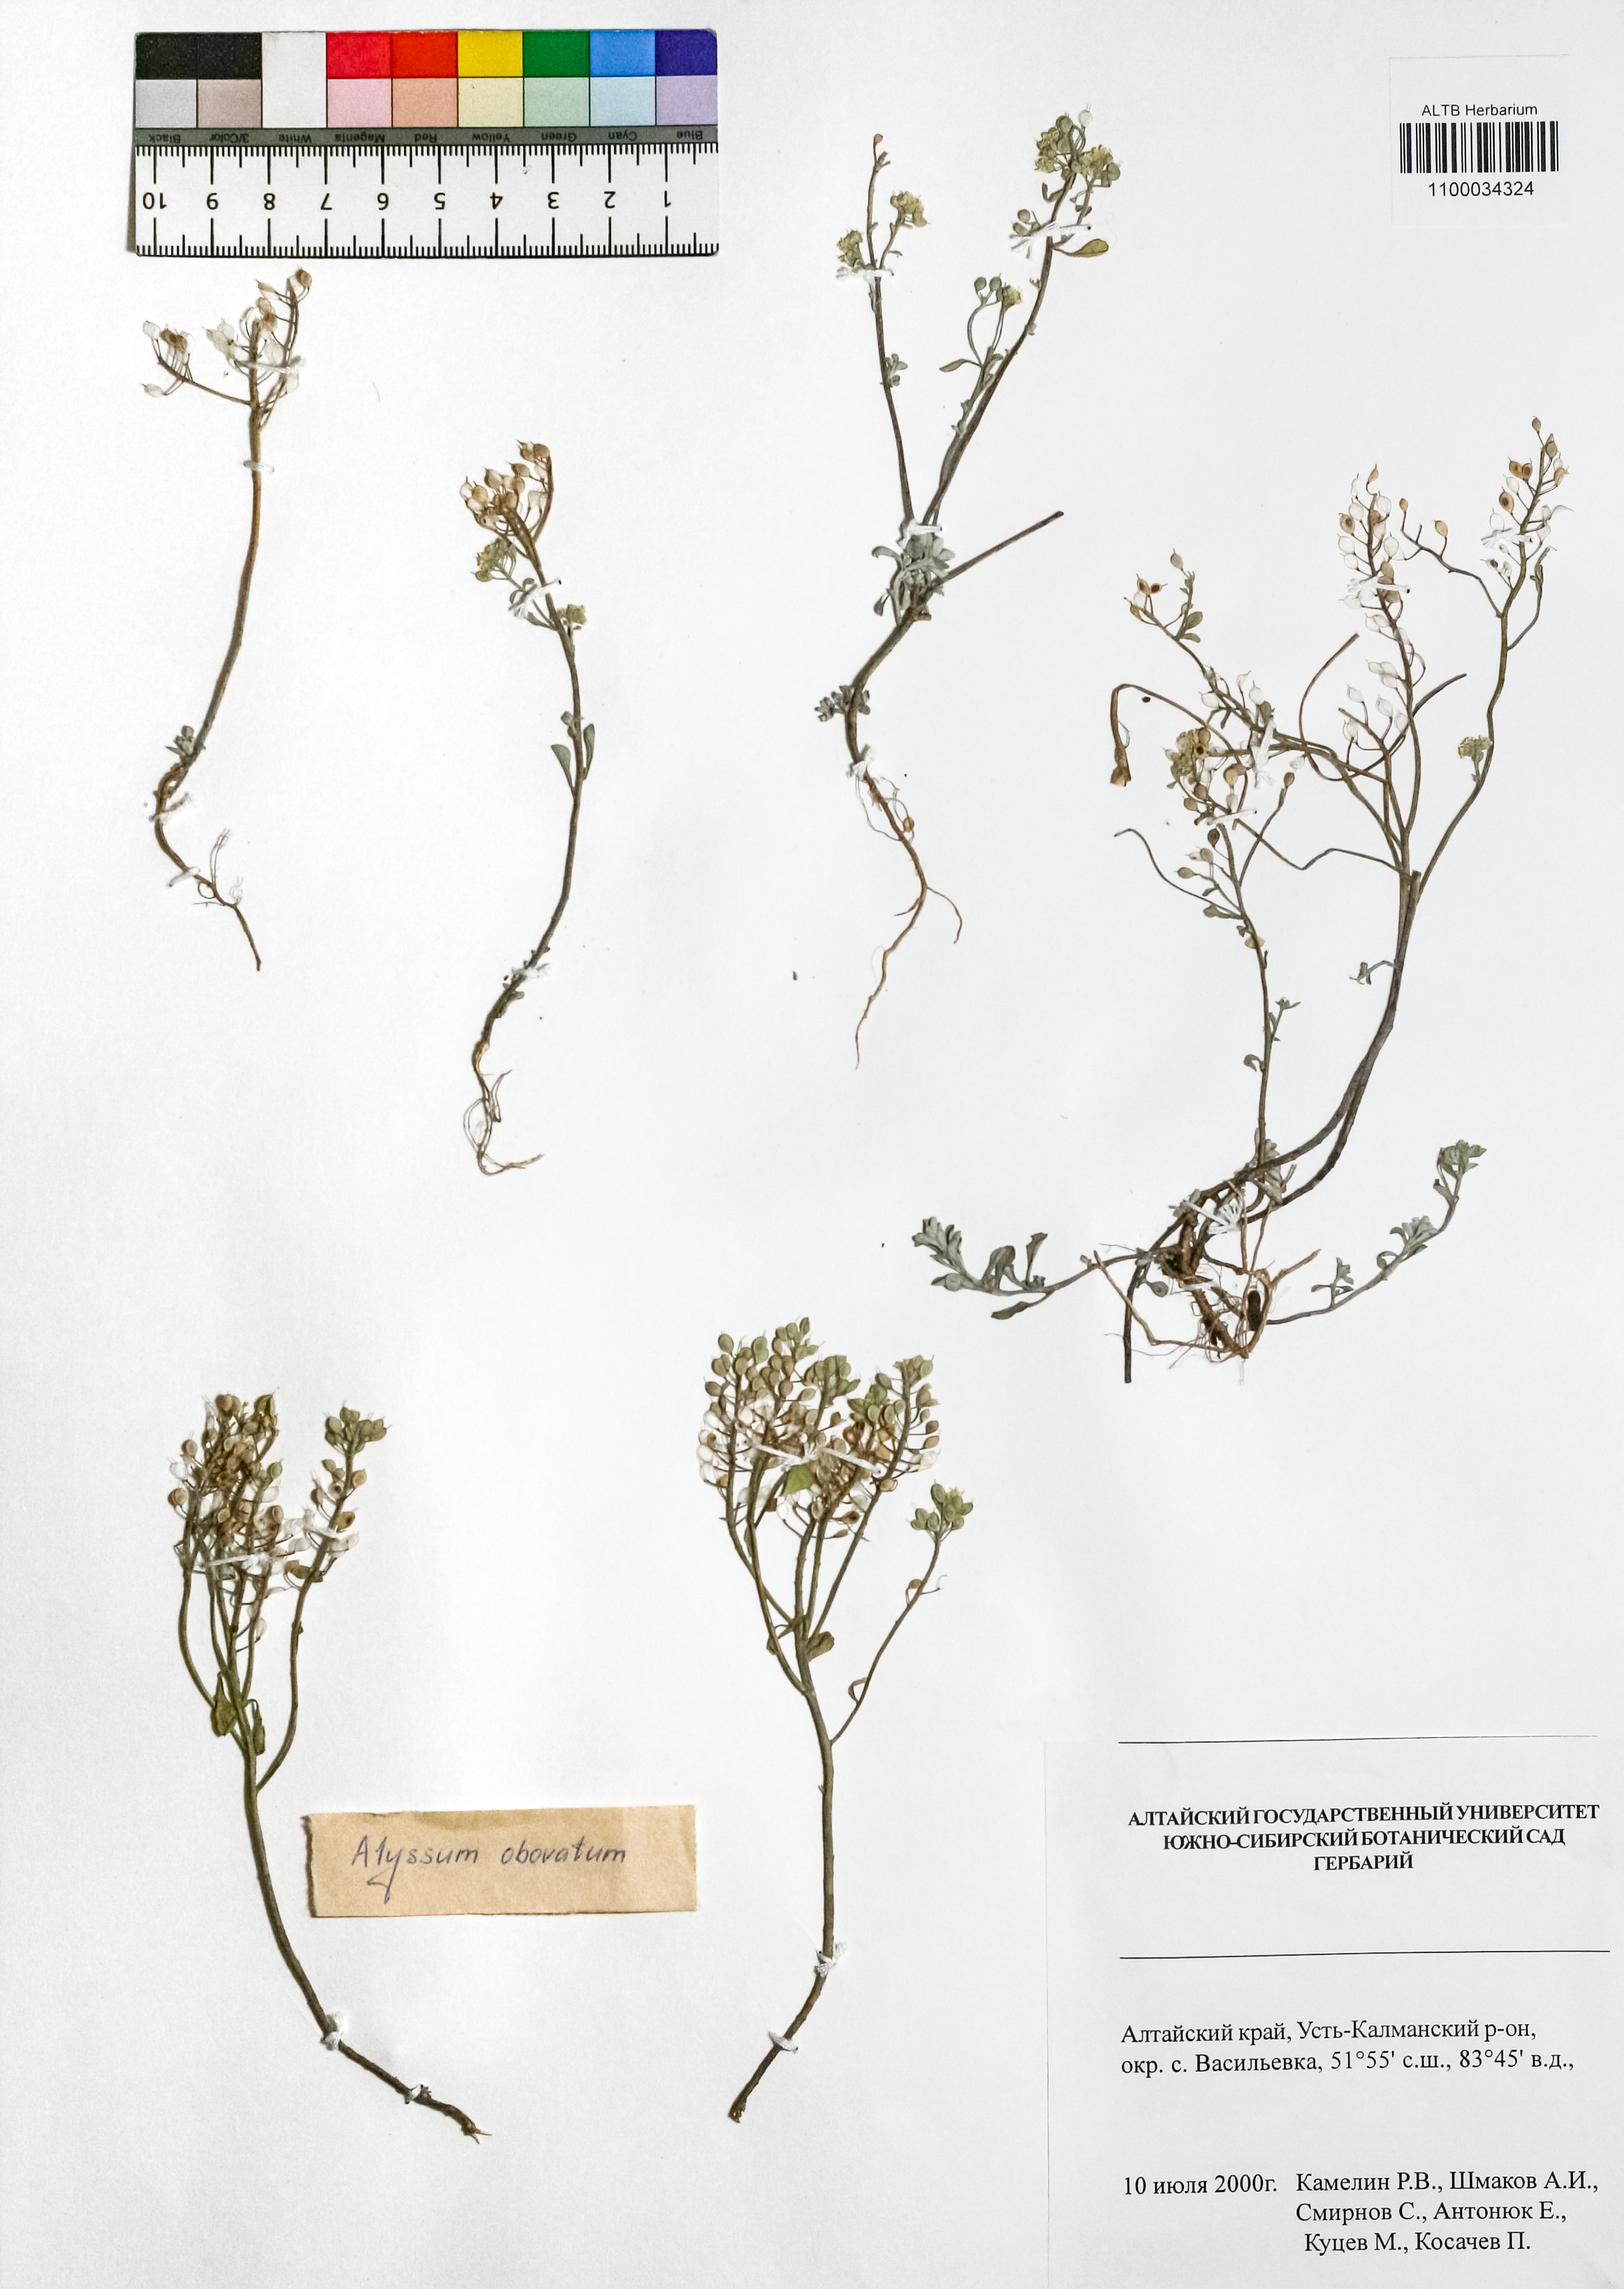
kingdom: Plantae
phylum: Tracheophyta
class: Magnoliopsida
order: Brassicales
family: Brassicaceae
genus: Odontarrhena
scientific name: Odontarrhena obovata
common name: American alyssum
